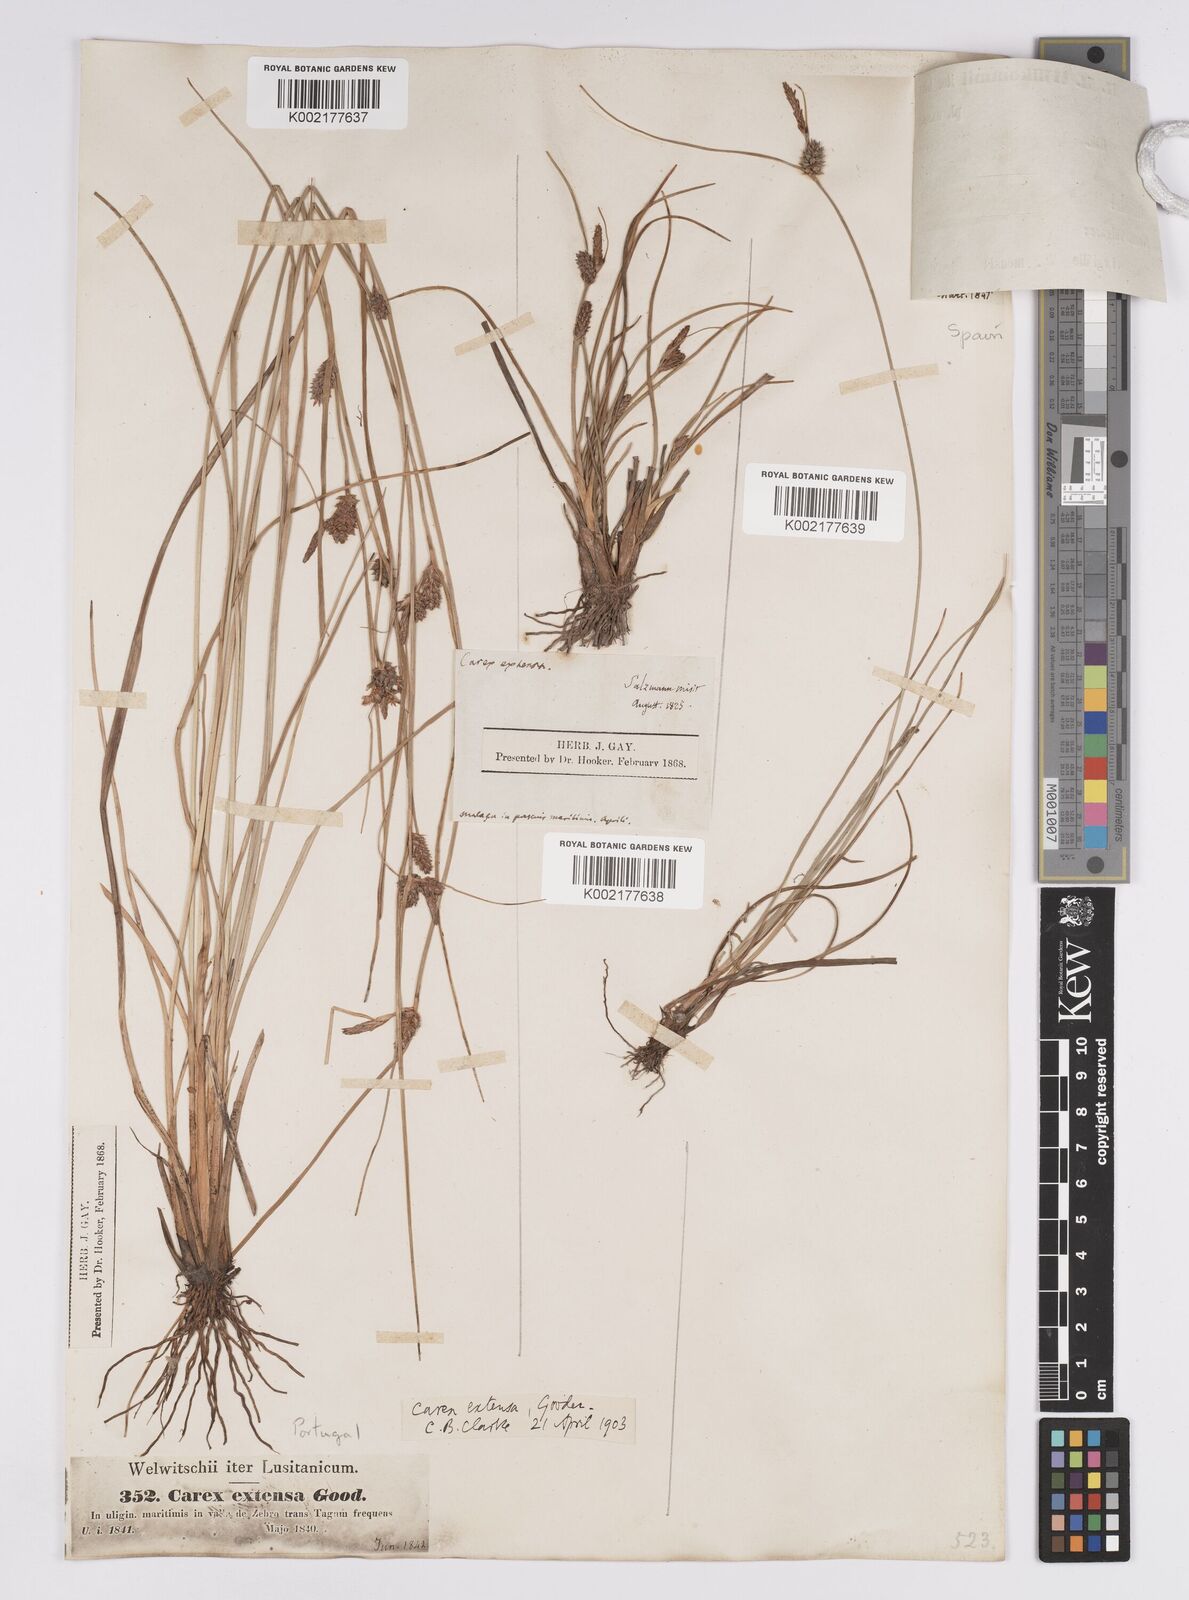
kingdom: Plantae
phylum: Tracheophyta
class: Liliopsida
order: Poales
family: Cyperaceae
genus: Carex
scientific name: Carex extensa
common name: Long-bracted sedge
